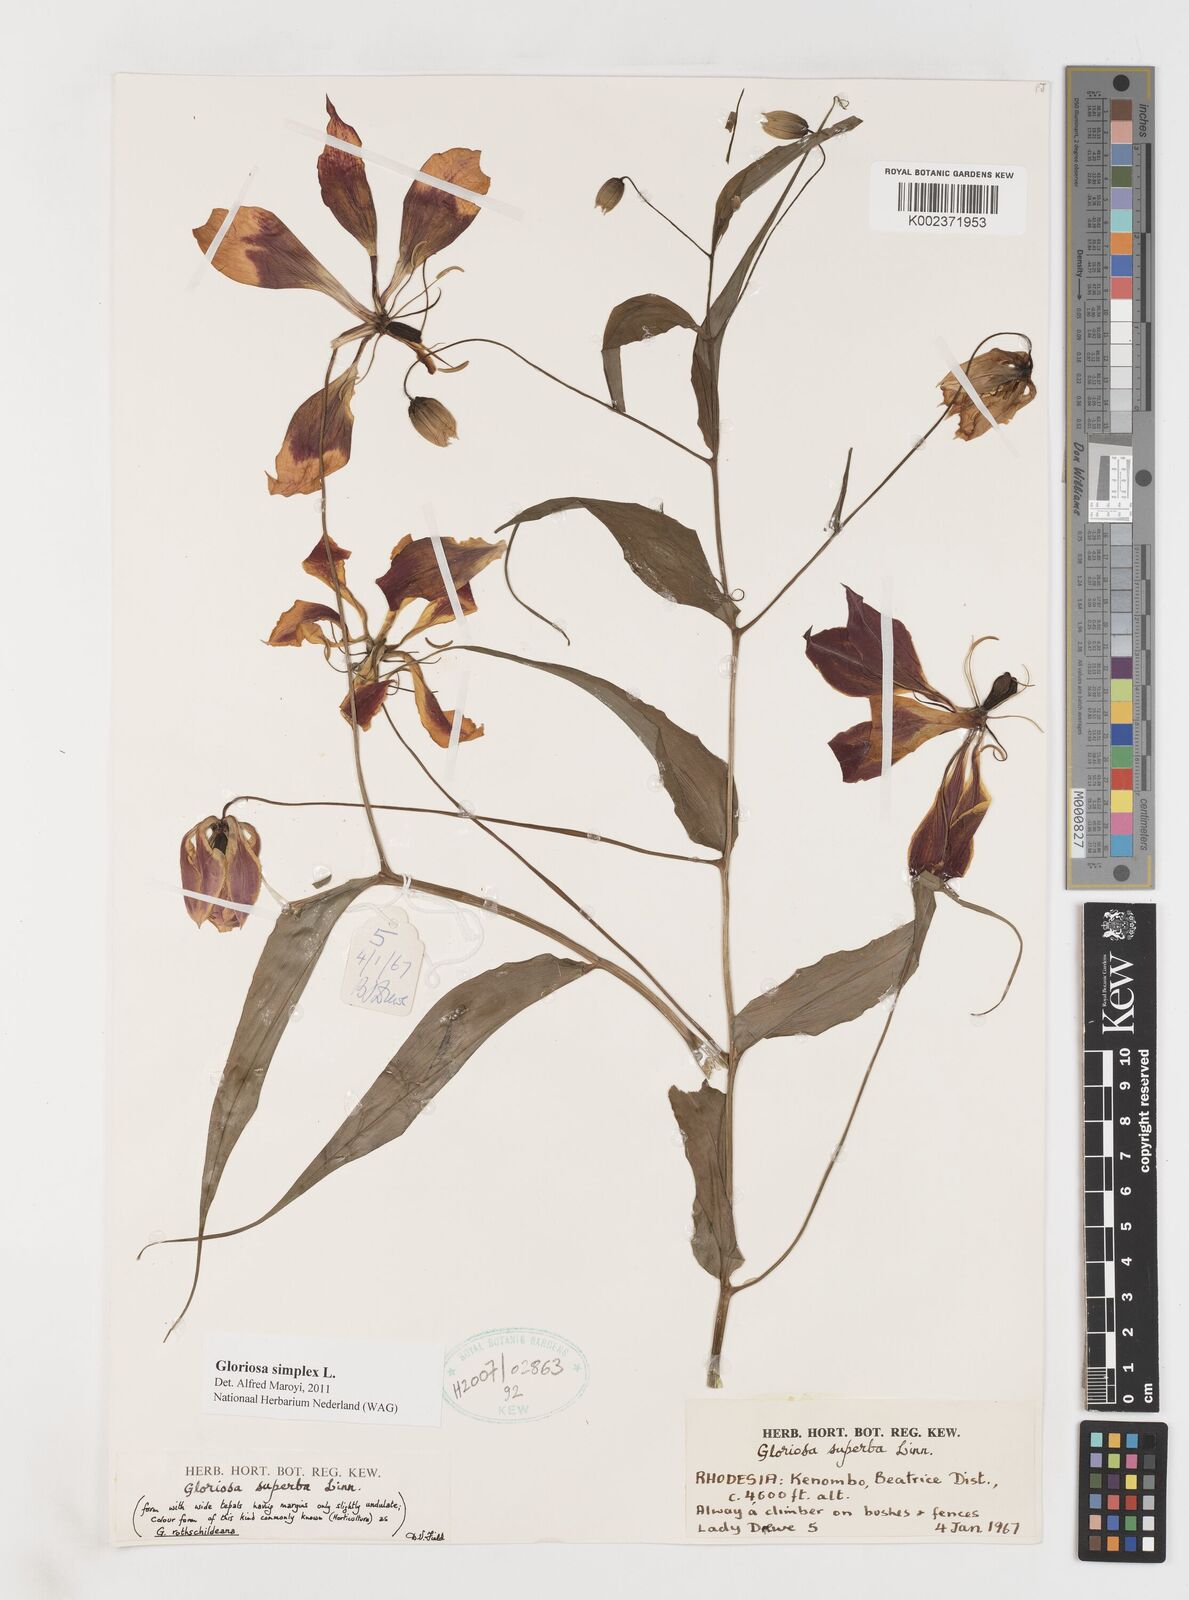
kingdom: Plantae
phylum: Tracheophyta
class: Liliopsida
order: Liliales
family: Colchicaceae
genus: Gloriosa
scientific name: Gloriosa simplex
